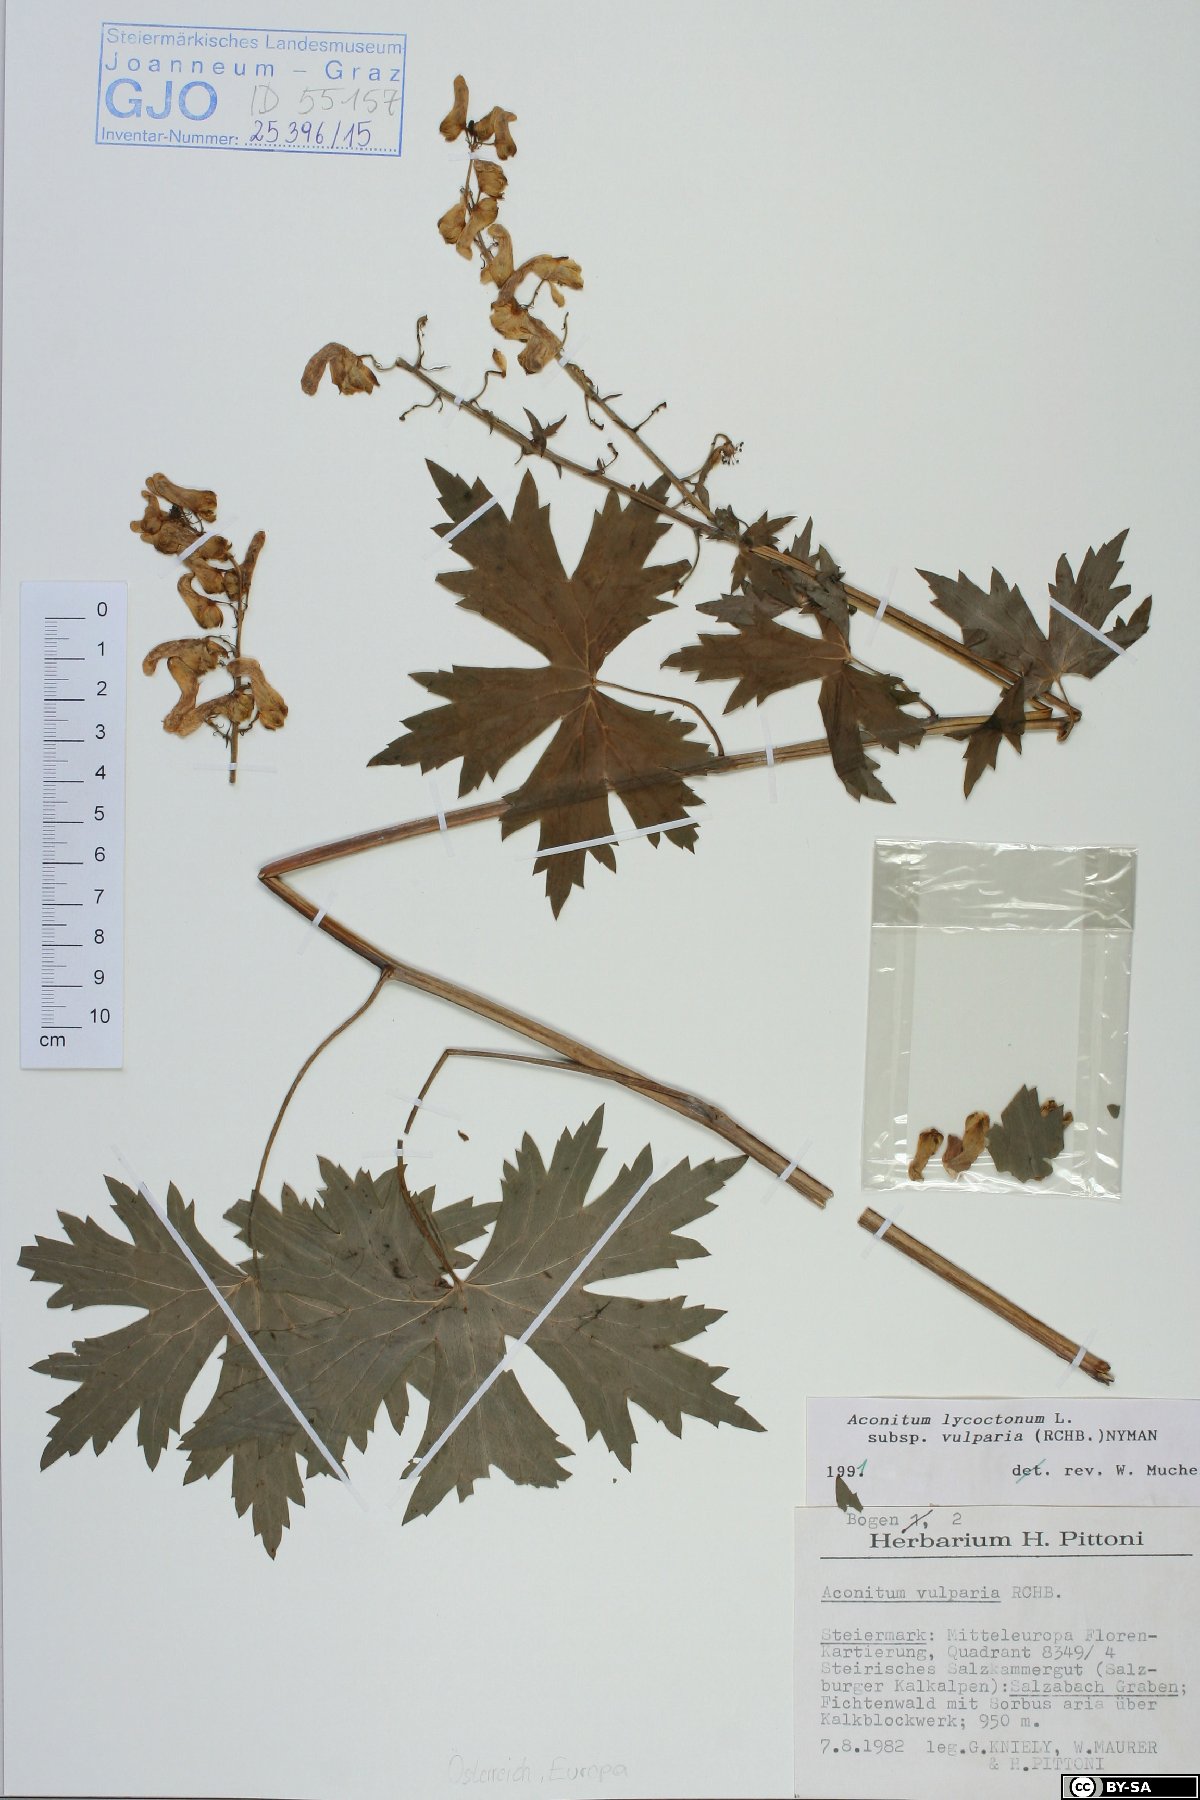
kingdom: Plantae
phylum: Tracheophyta
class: Magnoliopsida
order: Ranunculales
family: Ranunculaceae
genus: Aconitum
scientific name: Aconitum lycoctonum
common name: Wolf's-bane
